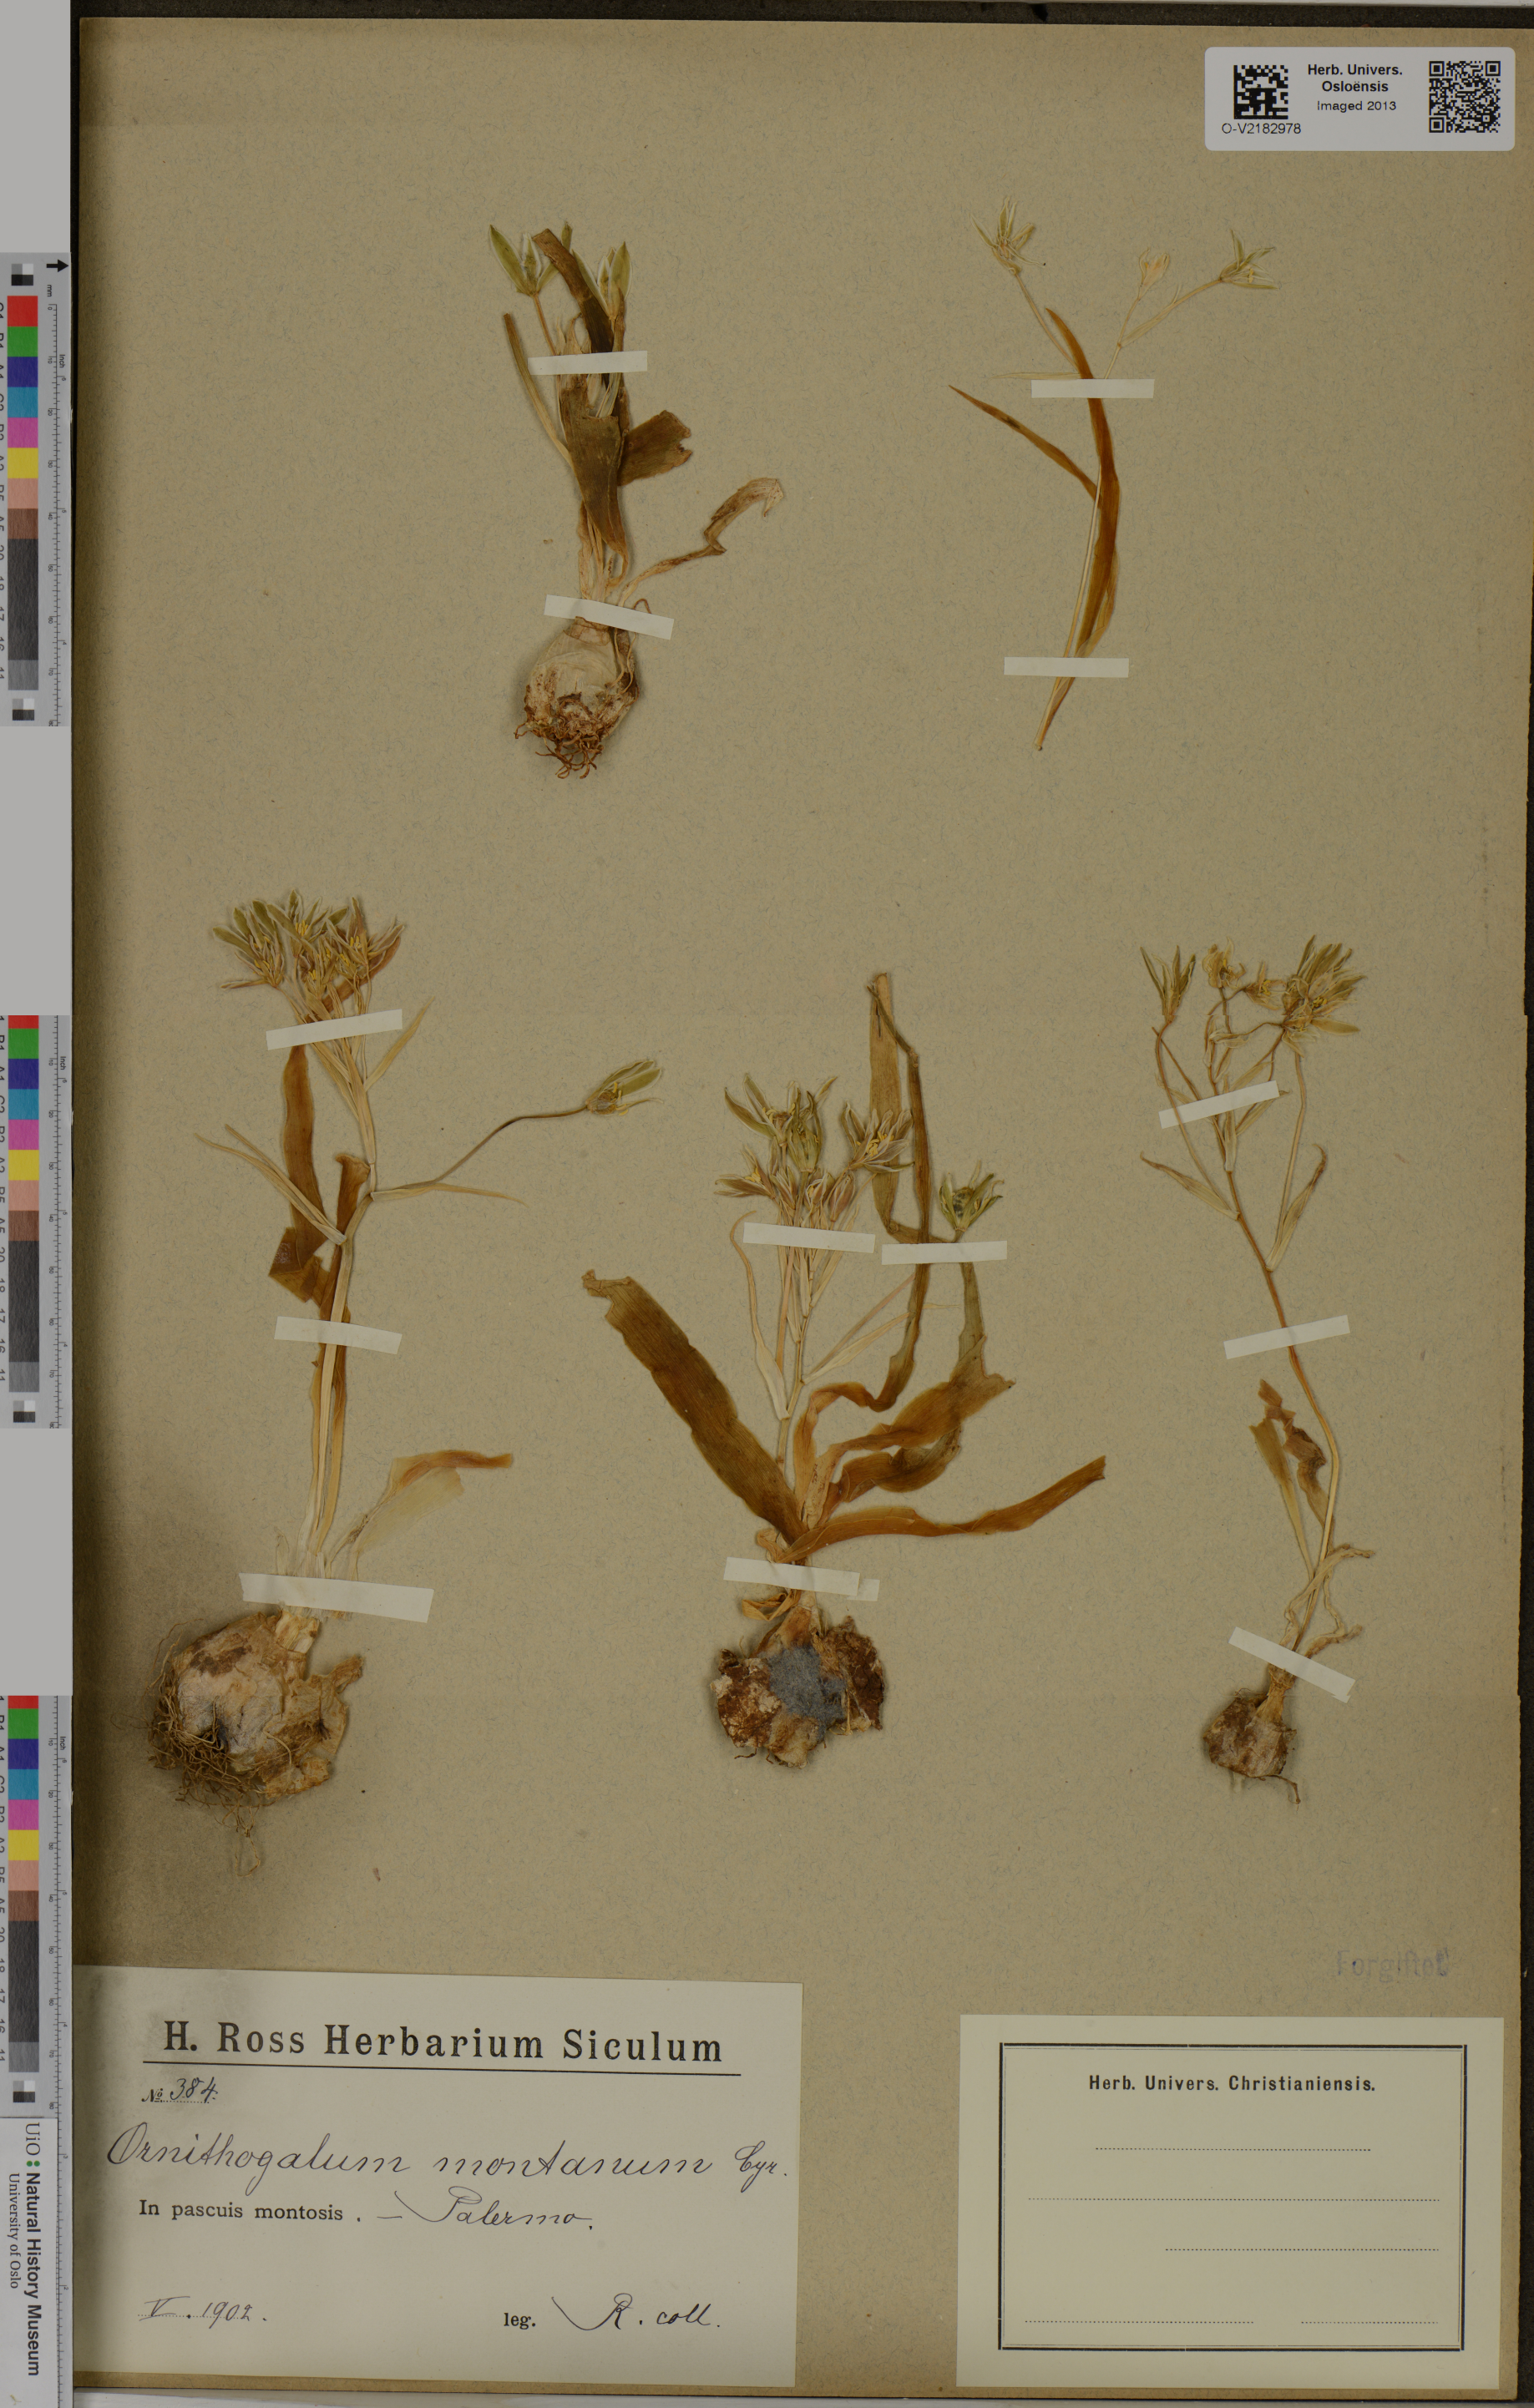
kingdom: Plantae
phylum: Tracheophyta
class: Liliopsida
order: Asparagales
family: Asparagaceae
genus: Ornithogalum
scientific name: Ornithogalum montanum
